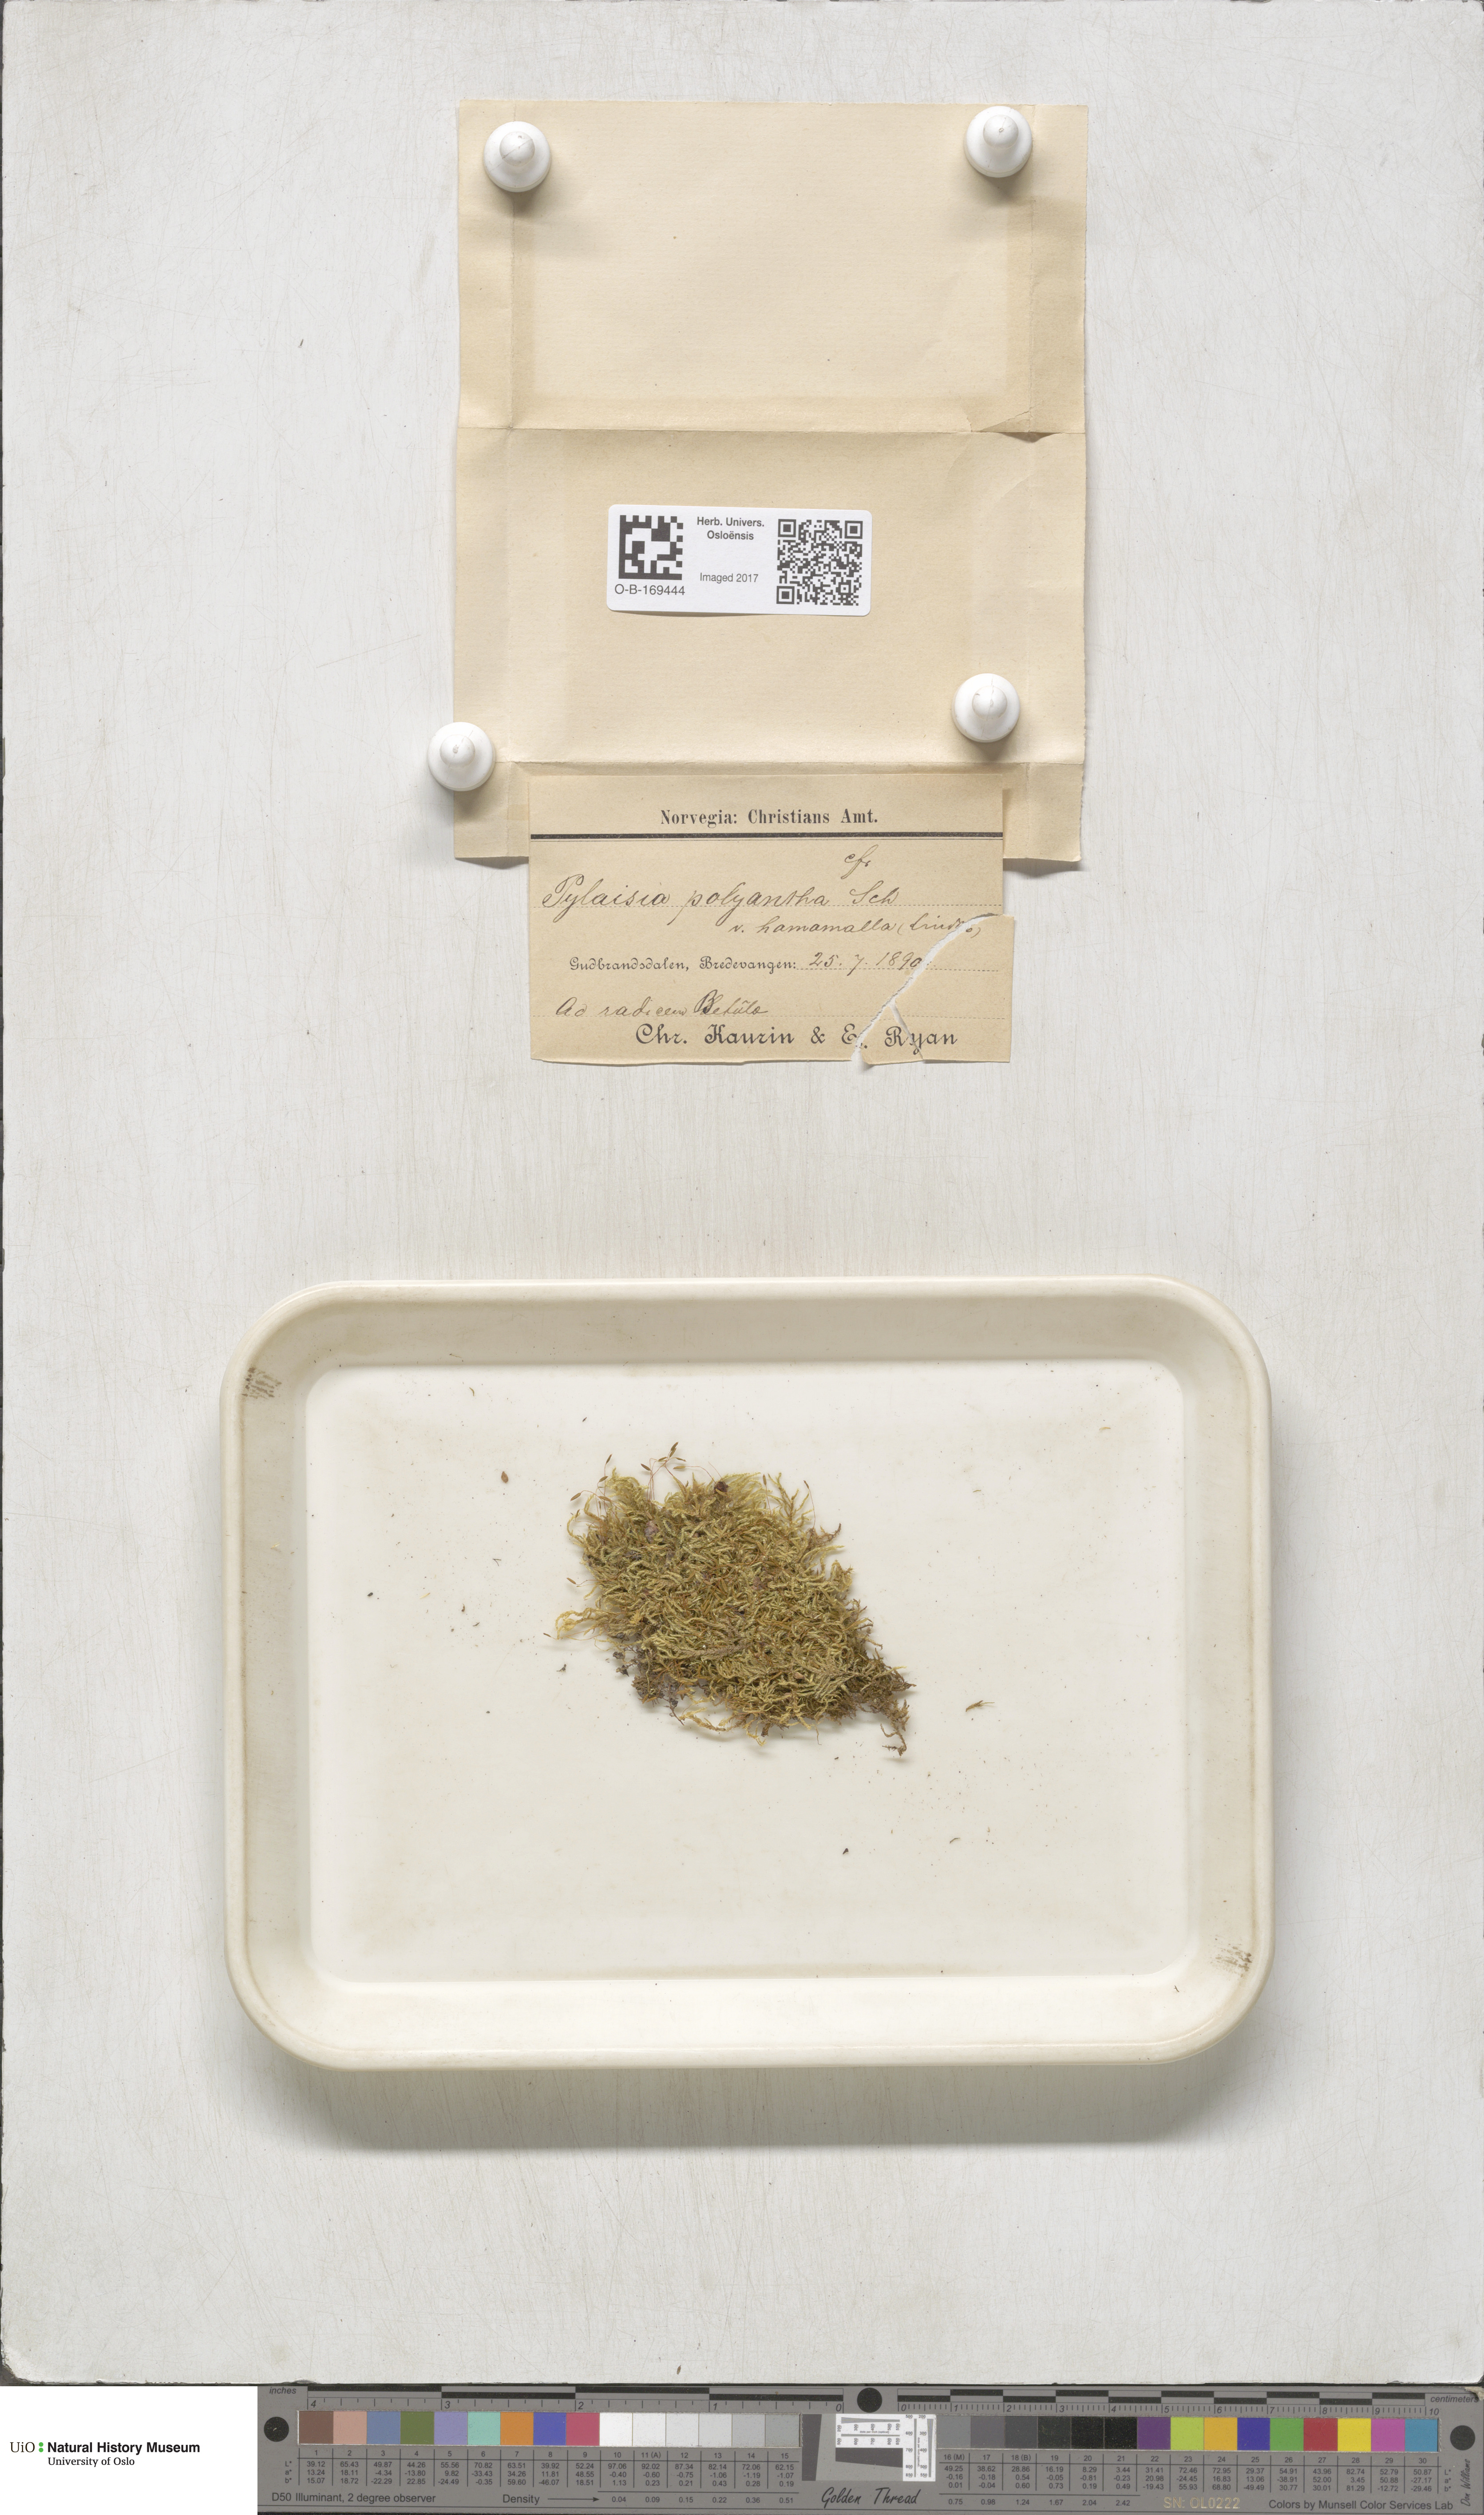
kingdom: Plantae
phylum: Bryophyta
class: Bryopsida
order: Hypnales
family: Pylaisiaceae
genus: Pylaisia
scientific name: Pylaisia polyantha
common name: Many-flowered leskea
